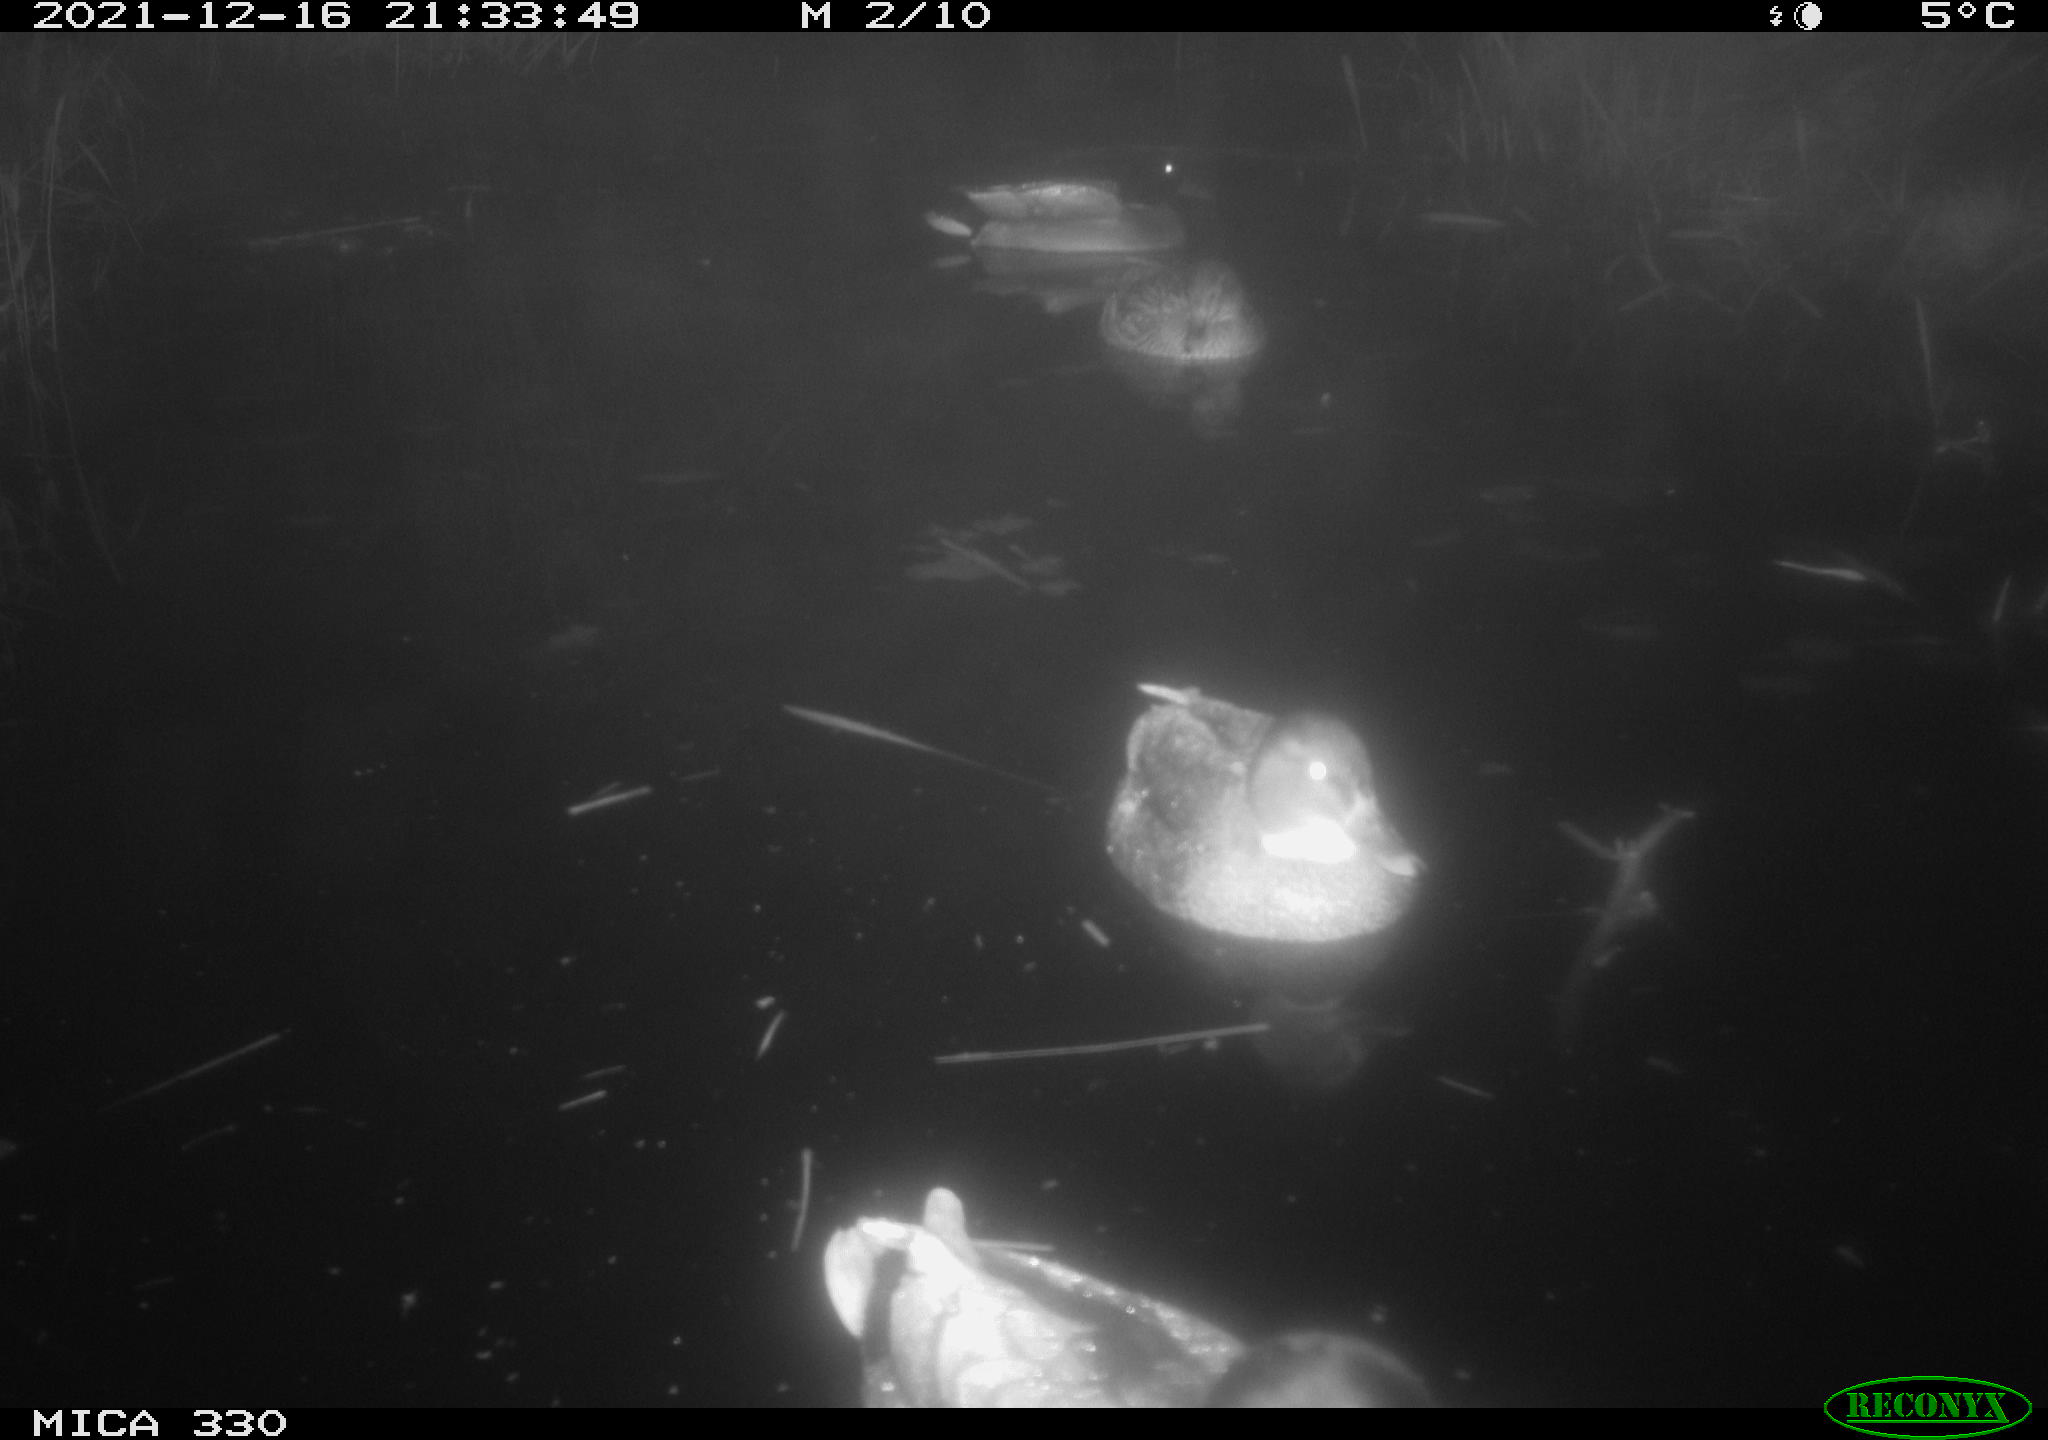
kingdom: Animalia
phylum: Chordata
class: Aves
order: Anseriformes
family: Anatidae
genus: Anas
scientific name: Anas platyrhynchos
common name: Mallard
